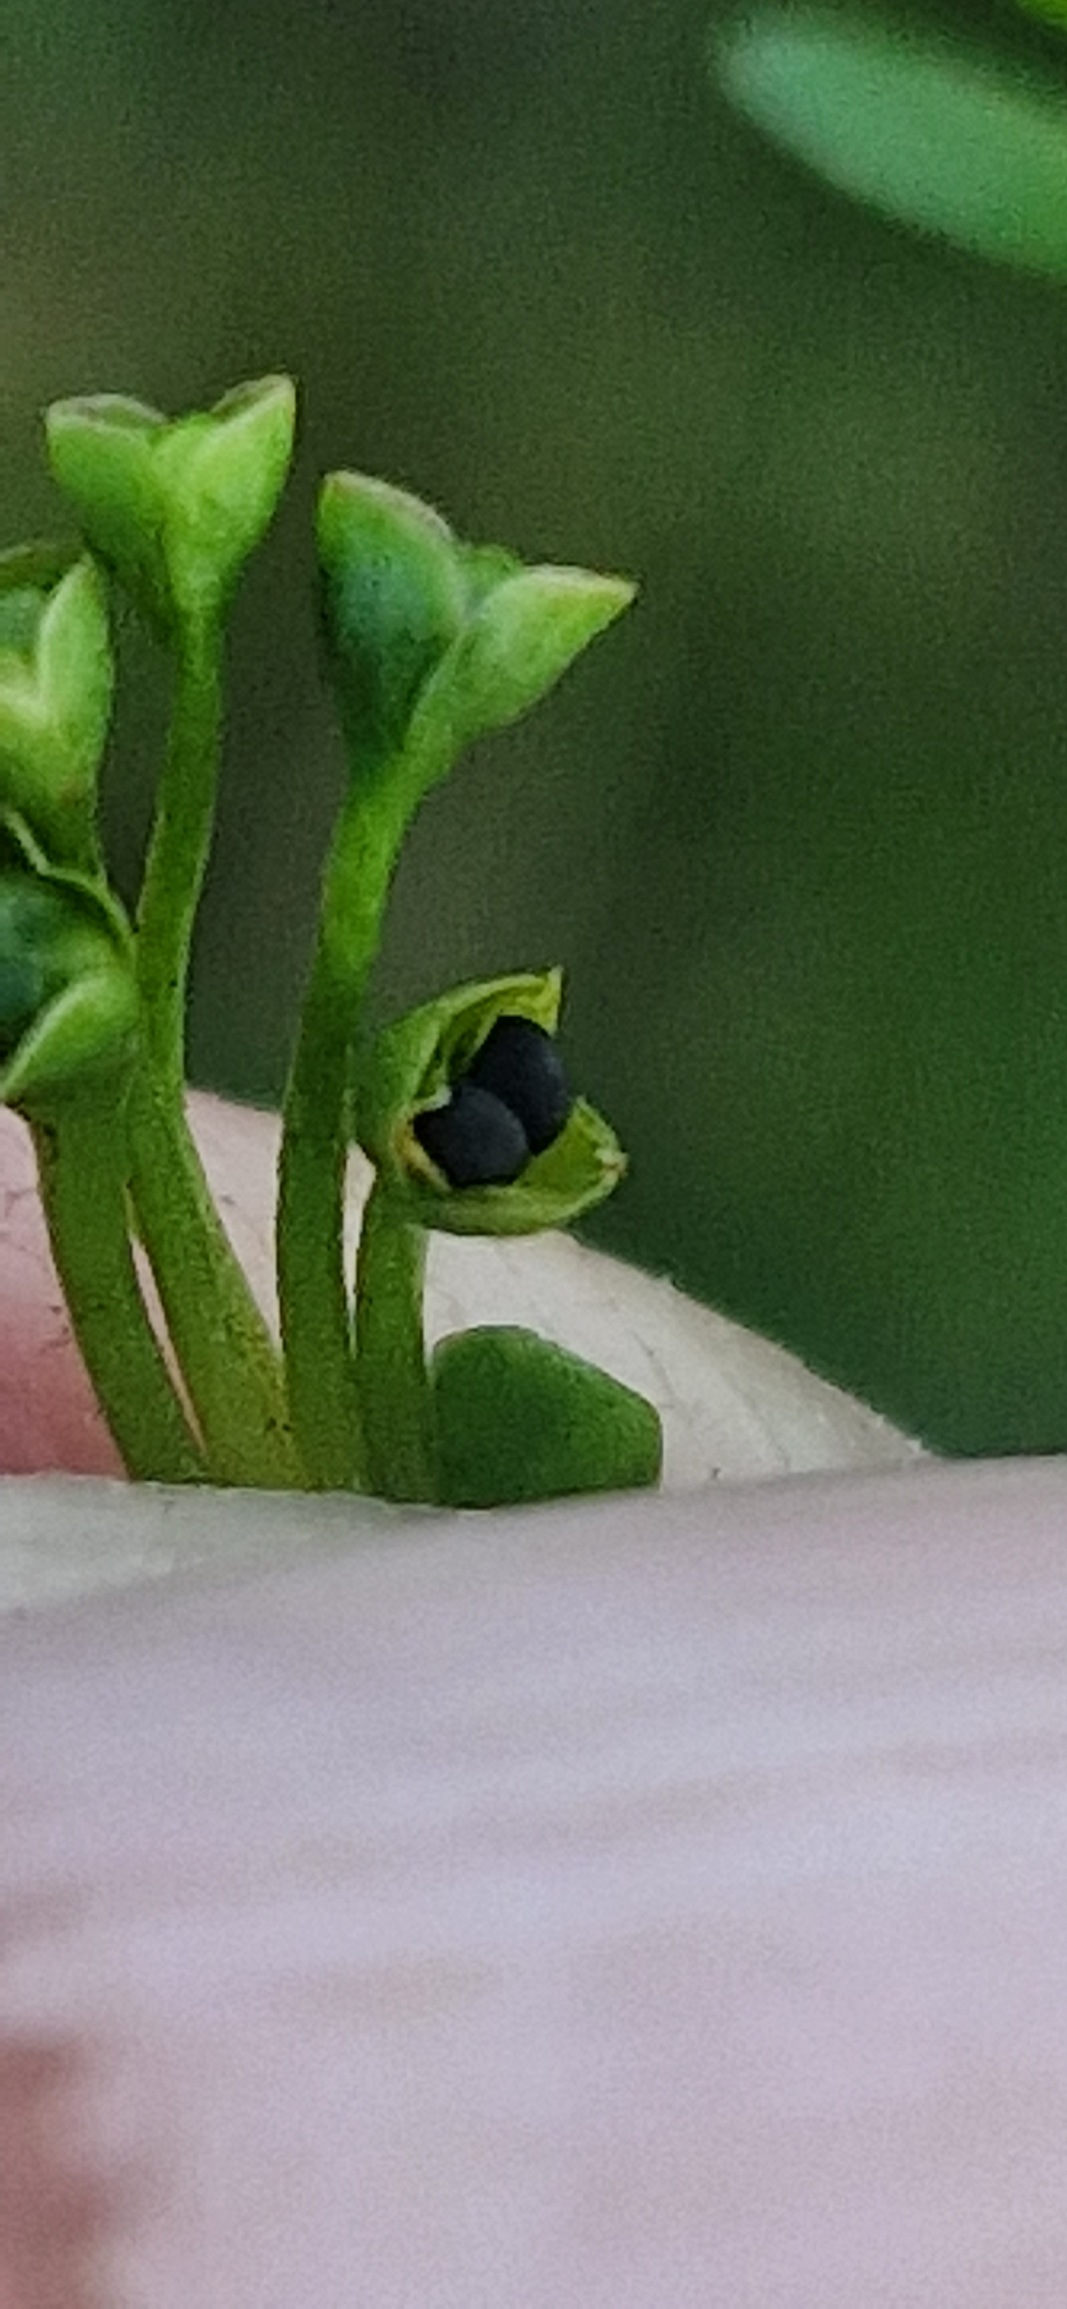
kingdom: Plantae
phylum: Tracheophyta
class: Magnoliopsida
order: Caryophyllales
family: Montiaceae
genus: Montia
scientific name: Montia arvensis
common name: Liden vandarve
